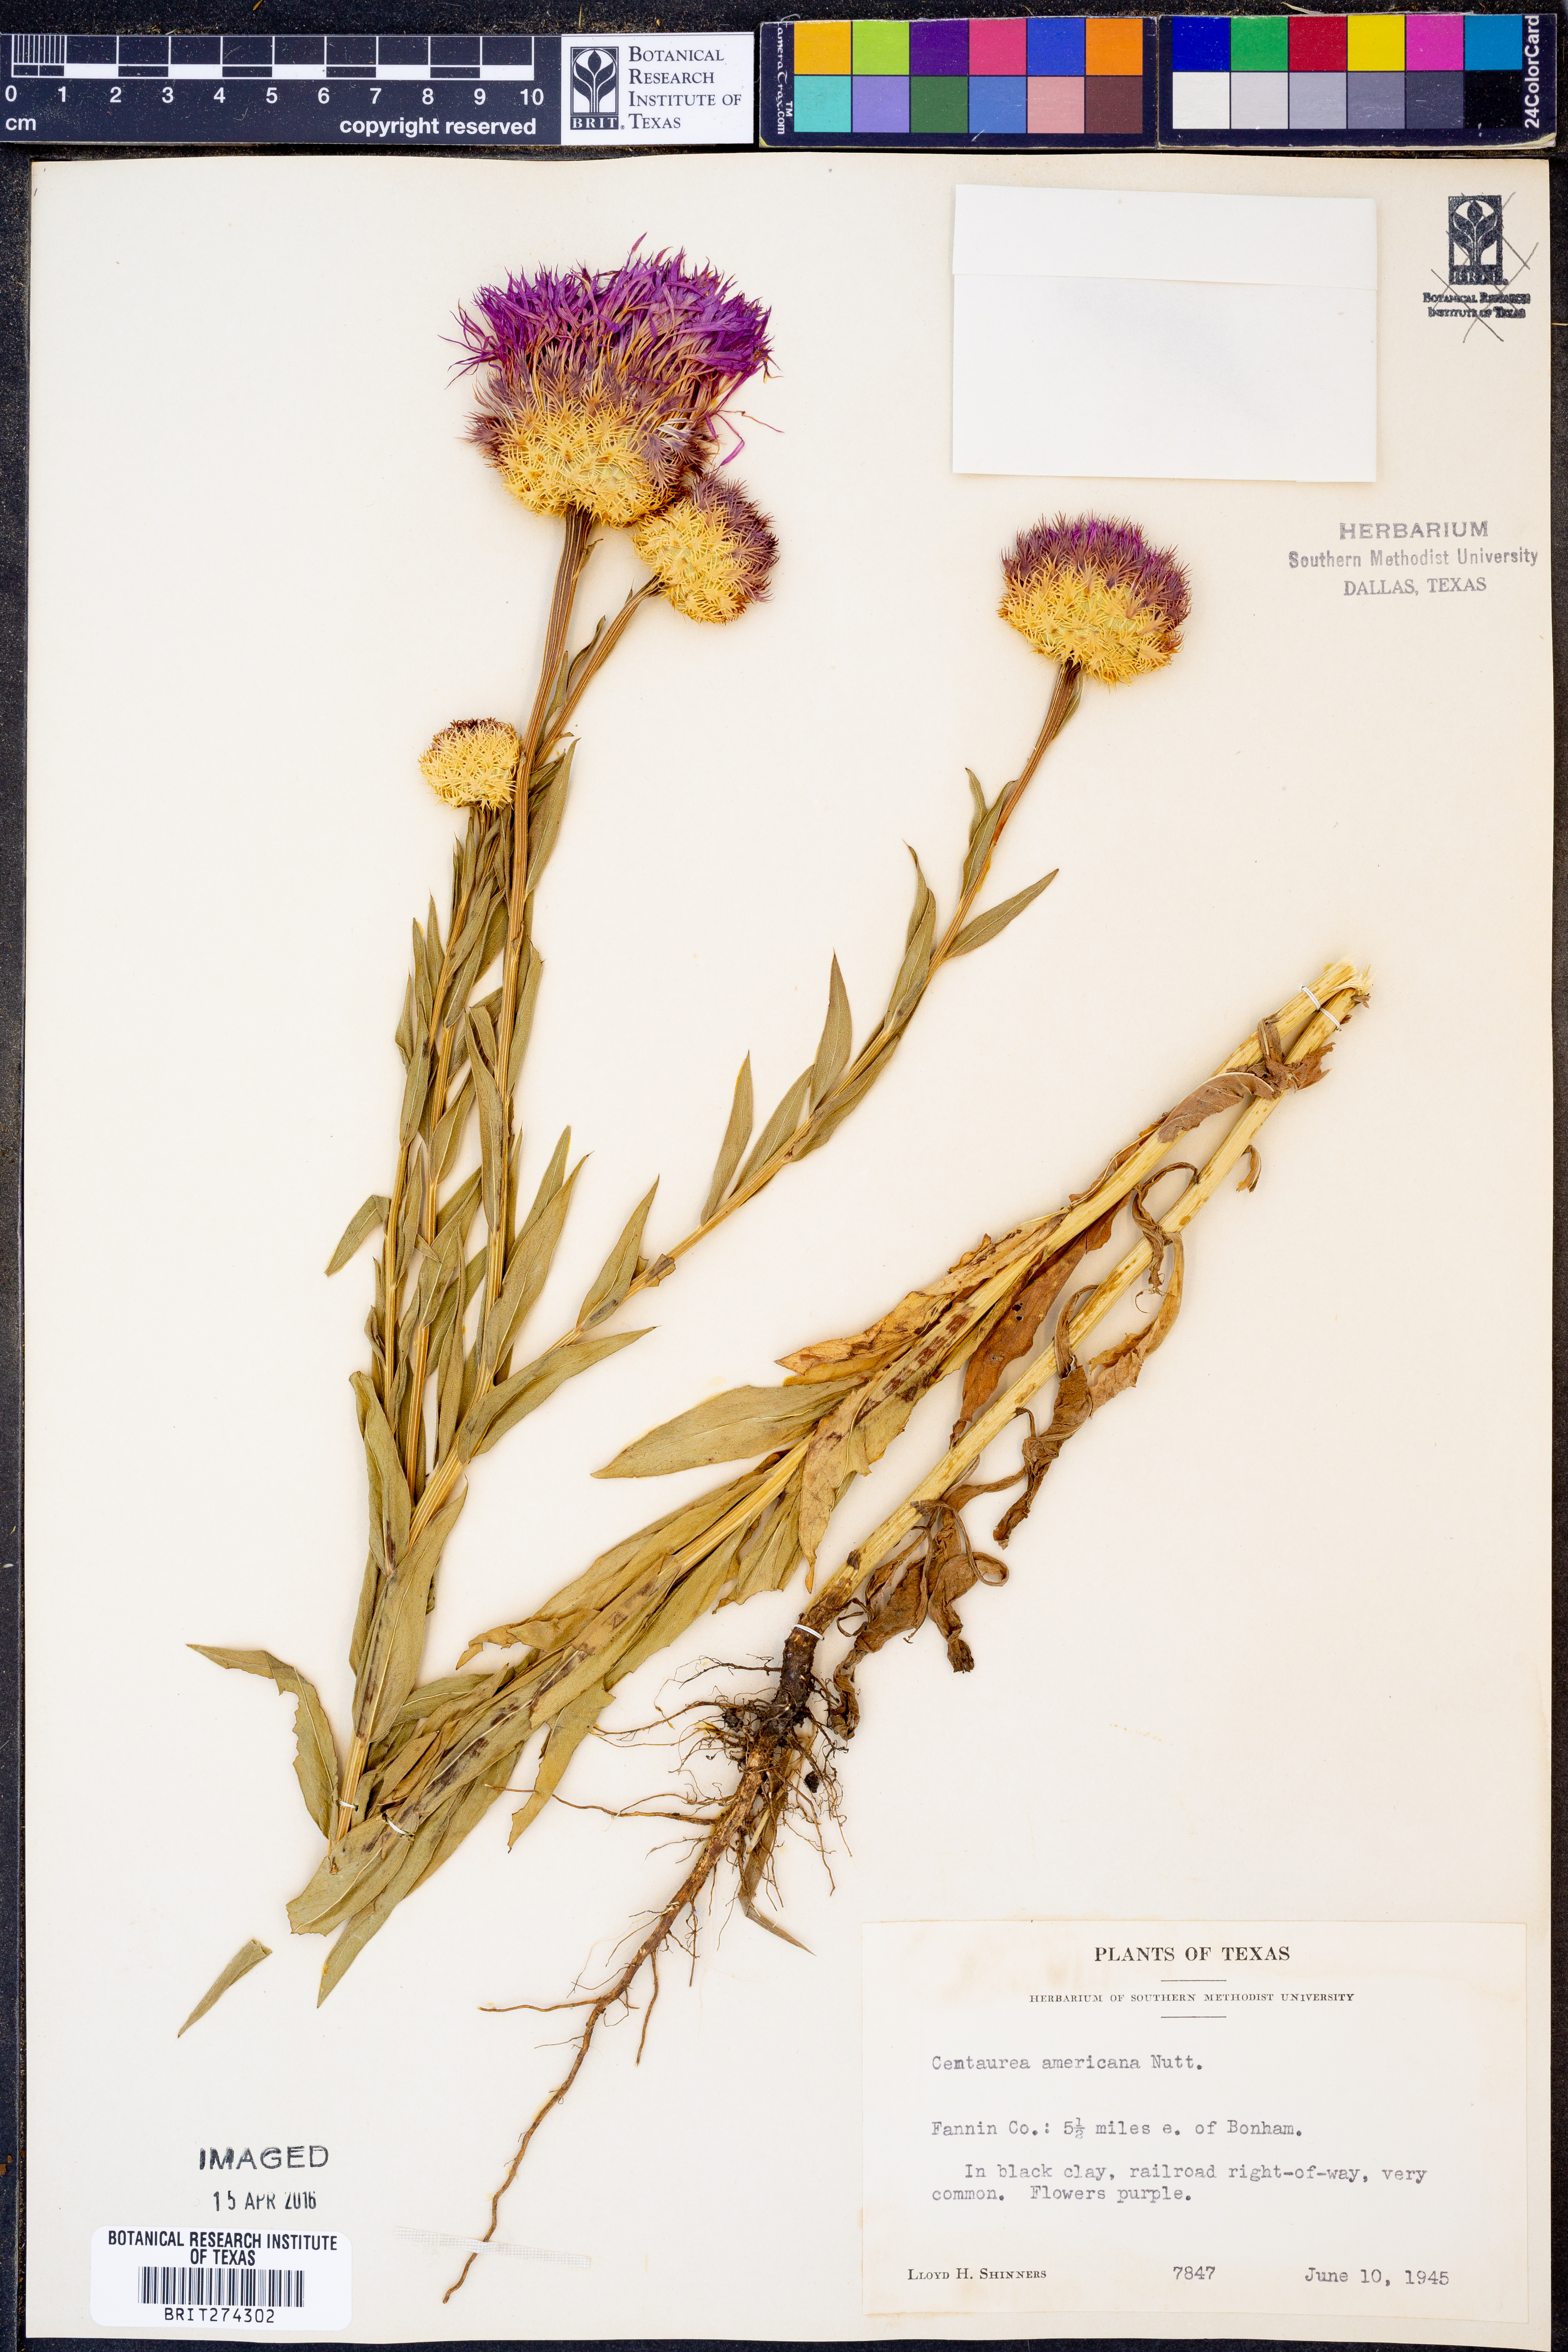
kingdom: Plantae
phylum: Tracheophyta
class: Magnoliopsida
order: Asterales
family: Asteraceae
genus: Plectocephalus
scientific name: Plectocephalus americanus
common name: American basket-flower
